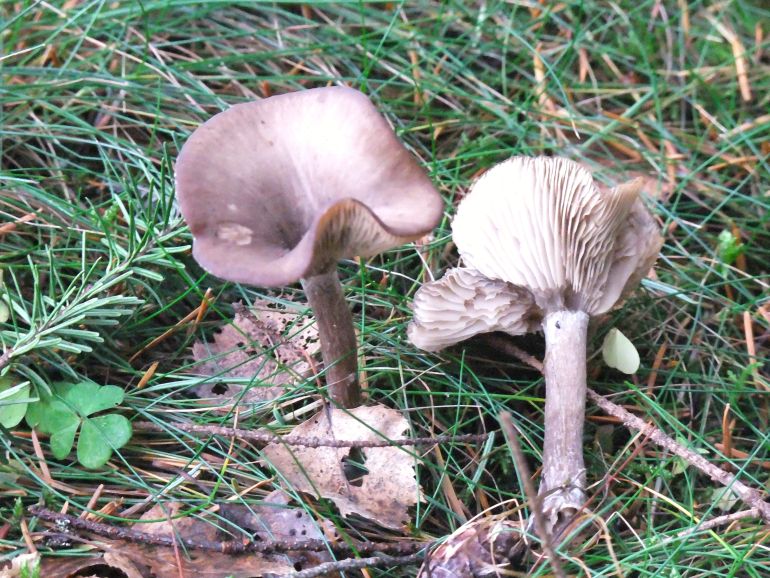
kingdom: Fungi
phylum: Basidiomycota
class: Agaricomycetes
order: Agaricales
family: Pseudoclitocybaceae
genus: Pseudoclitocybe
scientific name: Pseudoclitocybe cyathiformis
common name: almindelig bægertragthat
